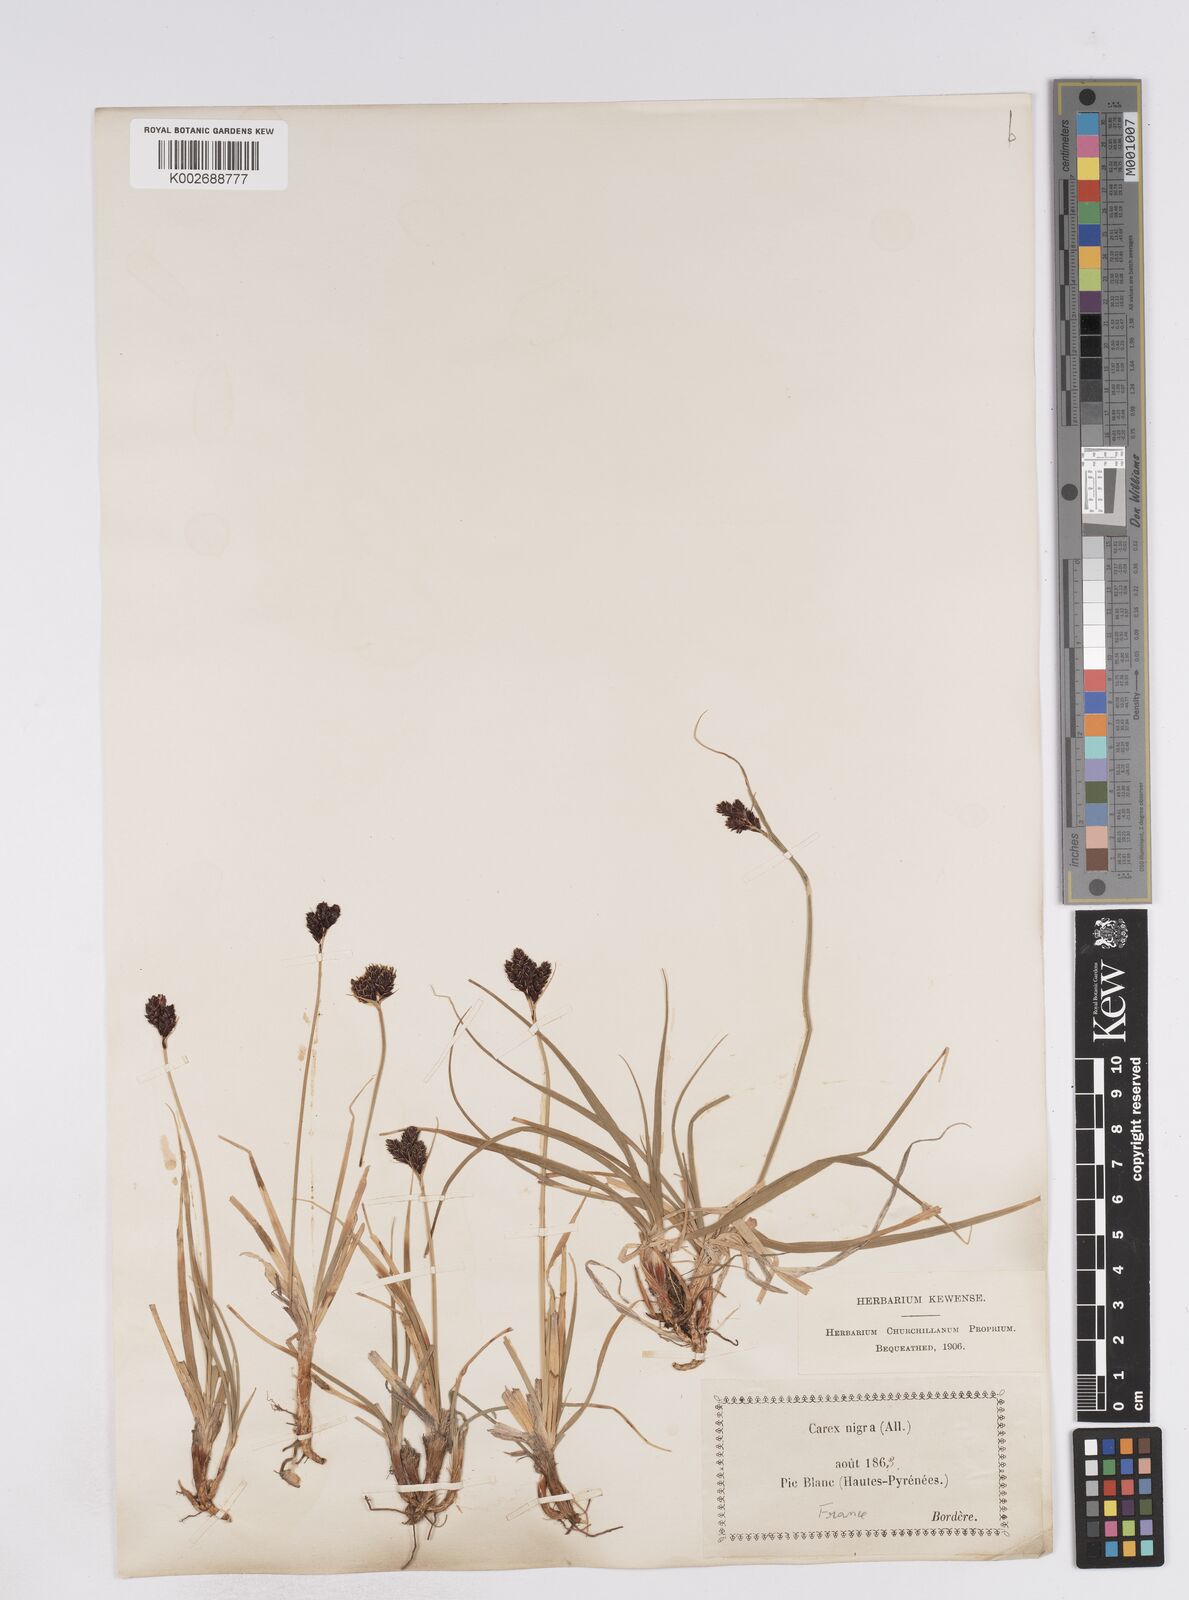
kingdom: Plantae
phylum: Tracheophyta
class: Liliopsida
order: Poales
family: Cyperaceae
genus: Carex
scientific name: Carex parviflora
